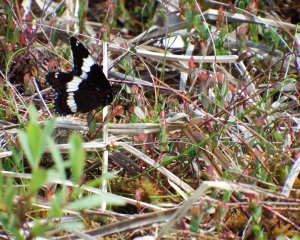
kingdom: Animalia
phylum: Arthropoda
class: Insecta
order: Lepidoptera
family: Nymphalidae
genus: Limenitis
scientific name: Limenitis arthemis
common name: Red-spotted Admiral
